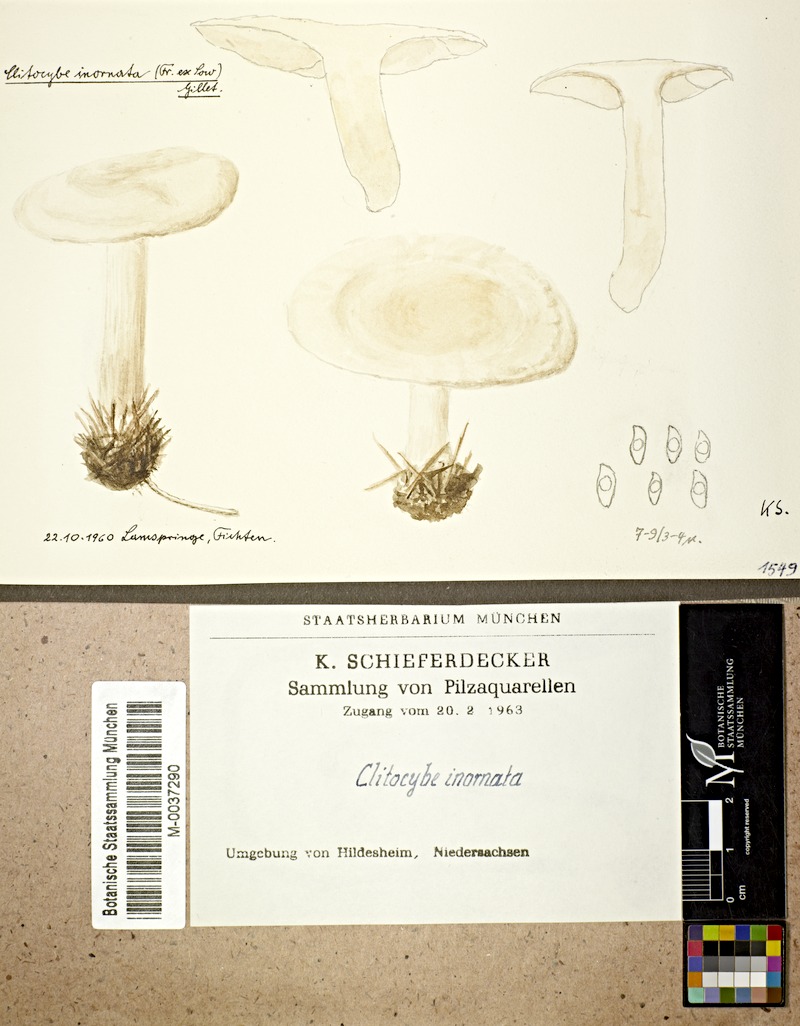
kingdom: Fungi
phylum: Basidiomycota
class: Agaricomycetes
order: Agaricales
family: Tricholomataceae
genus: Atractosporocybe
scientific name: Atractosporocybe inornata
